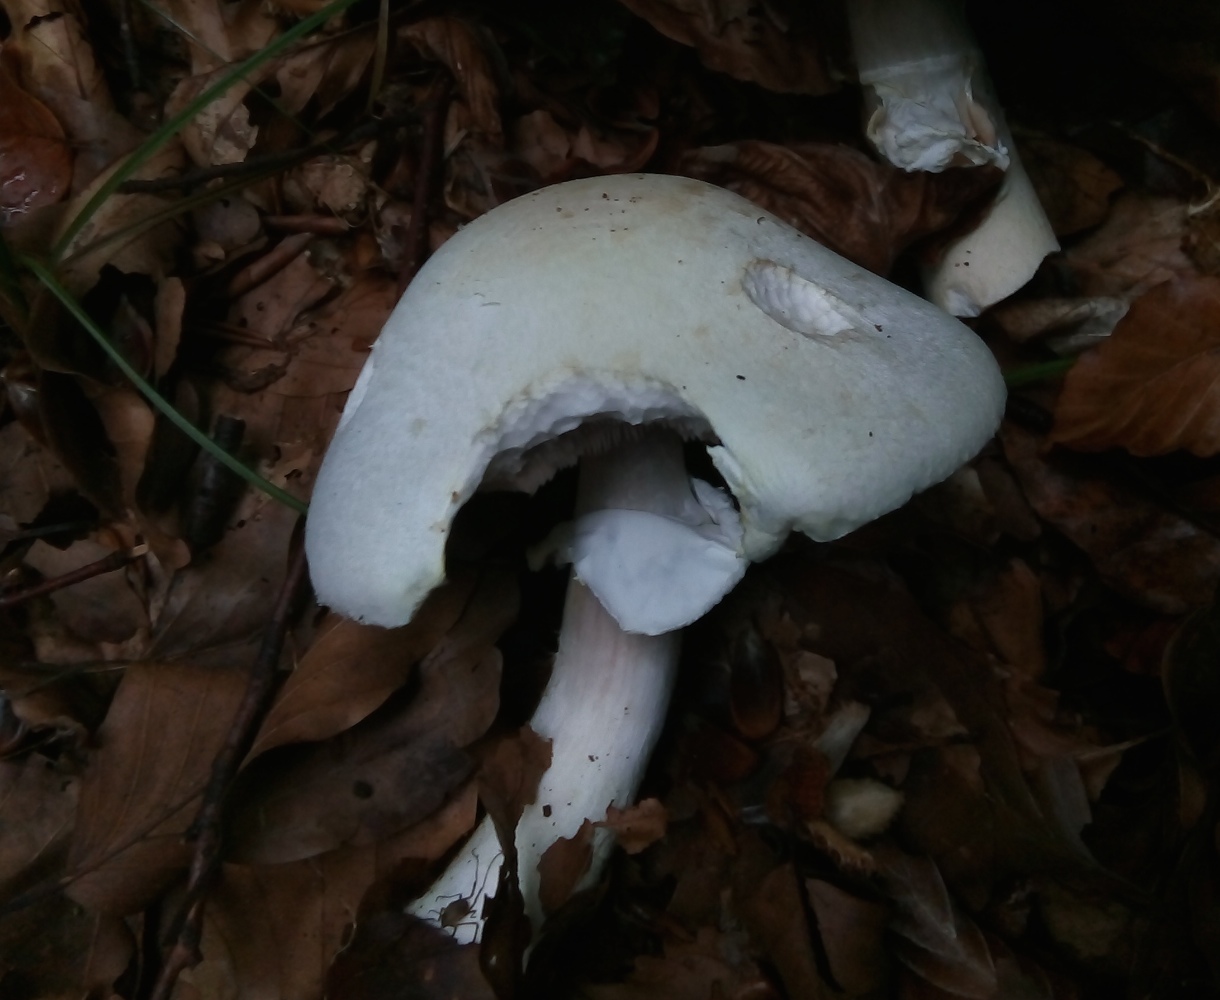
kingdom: Fungi
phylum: Basidiomycota
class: Agaricomycetes
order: Agaricales
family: Agaricaceae
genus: Agaricus
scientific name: Agaricus
